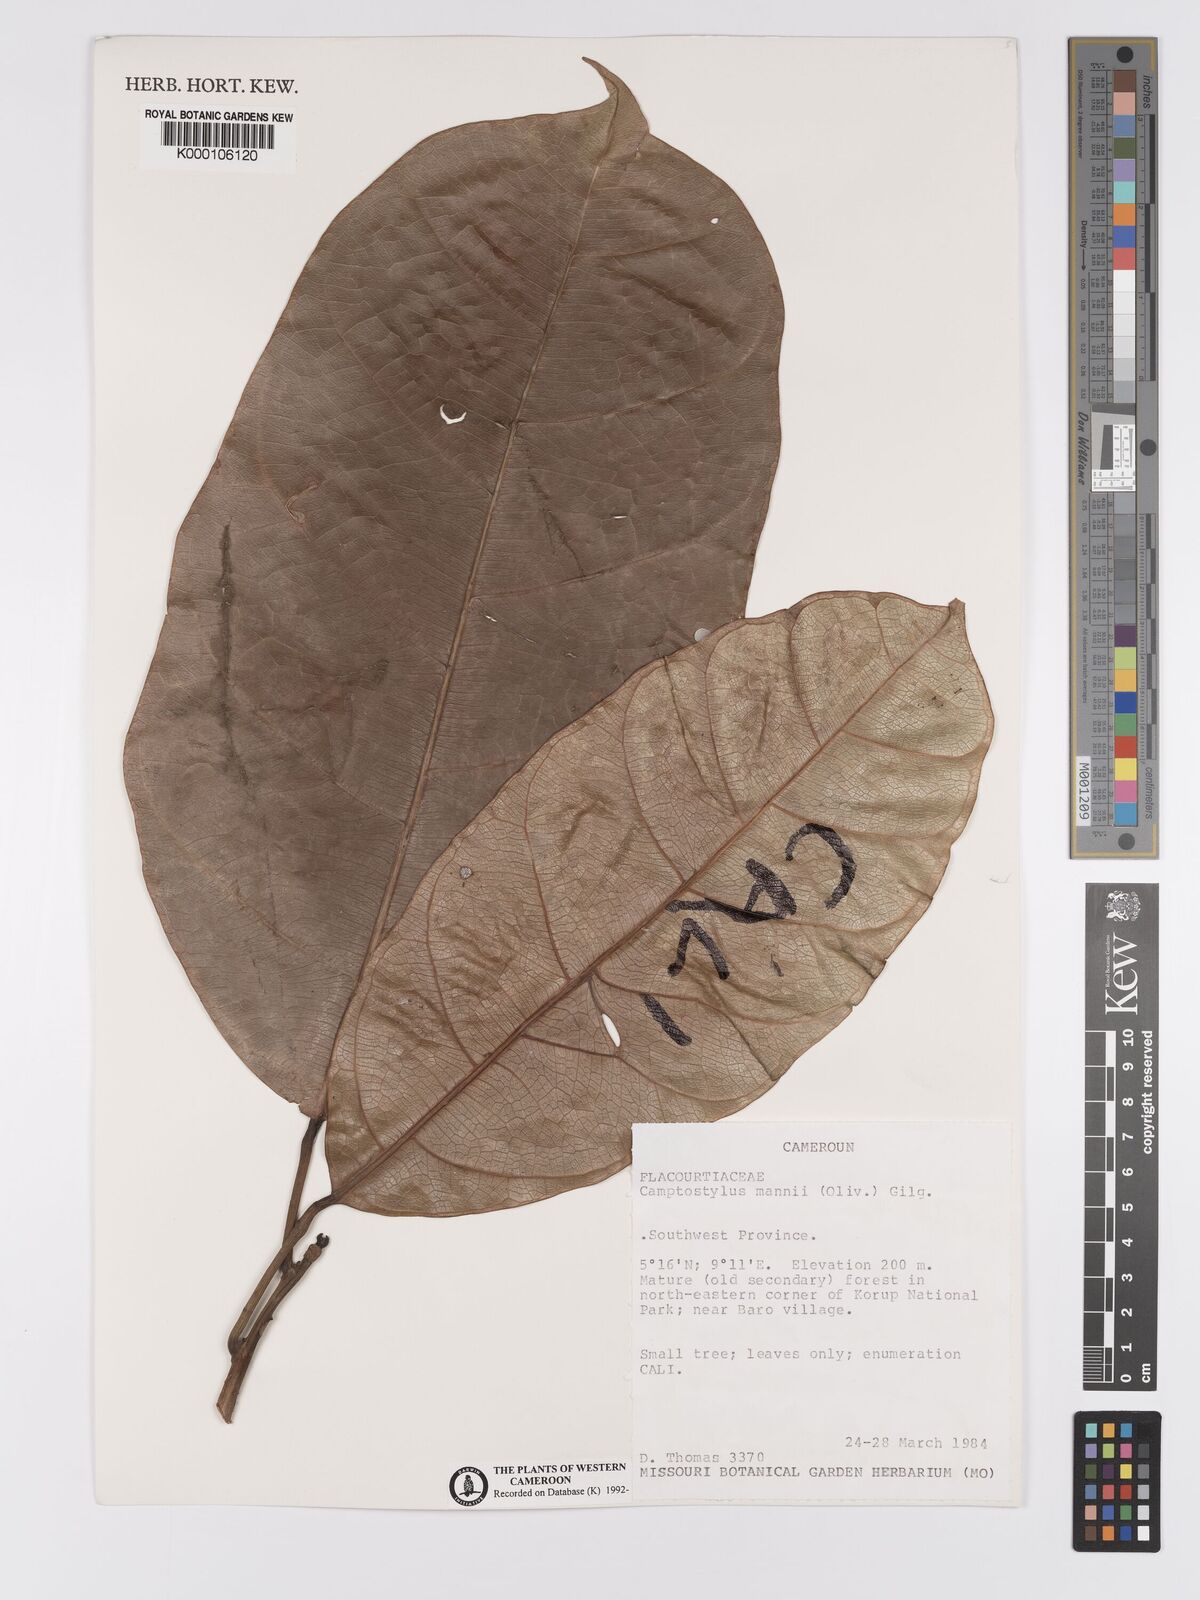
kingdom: Plantae
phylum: Tracheophyta
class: Magnoliopsida
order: Malpighiales
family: Achariaceae
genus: Camptostylus
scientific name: Camptostylus mannii
